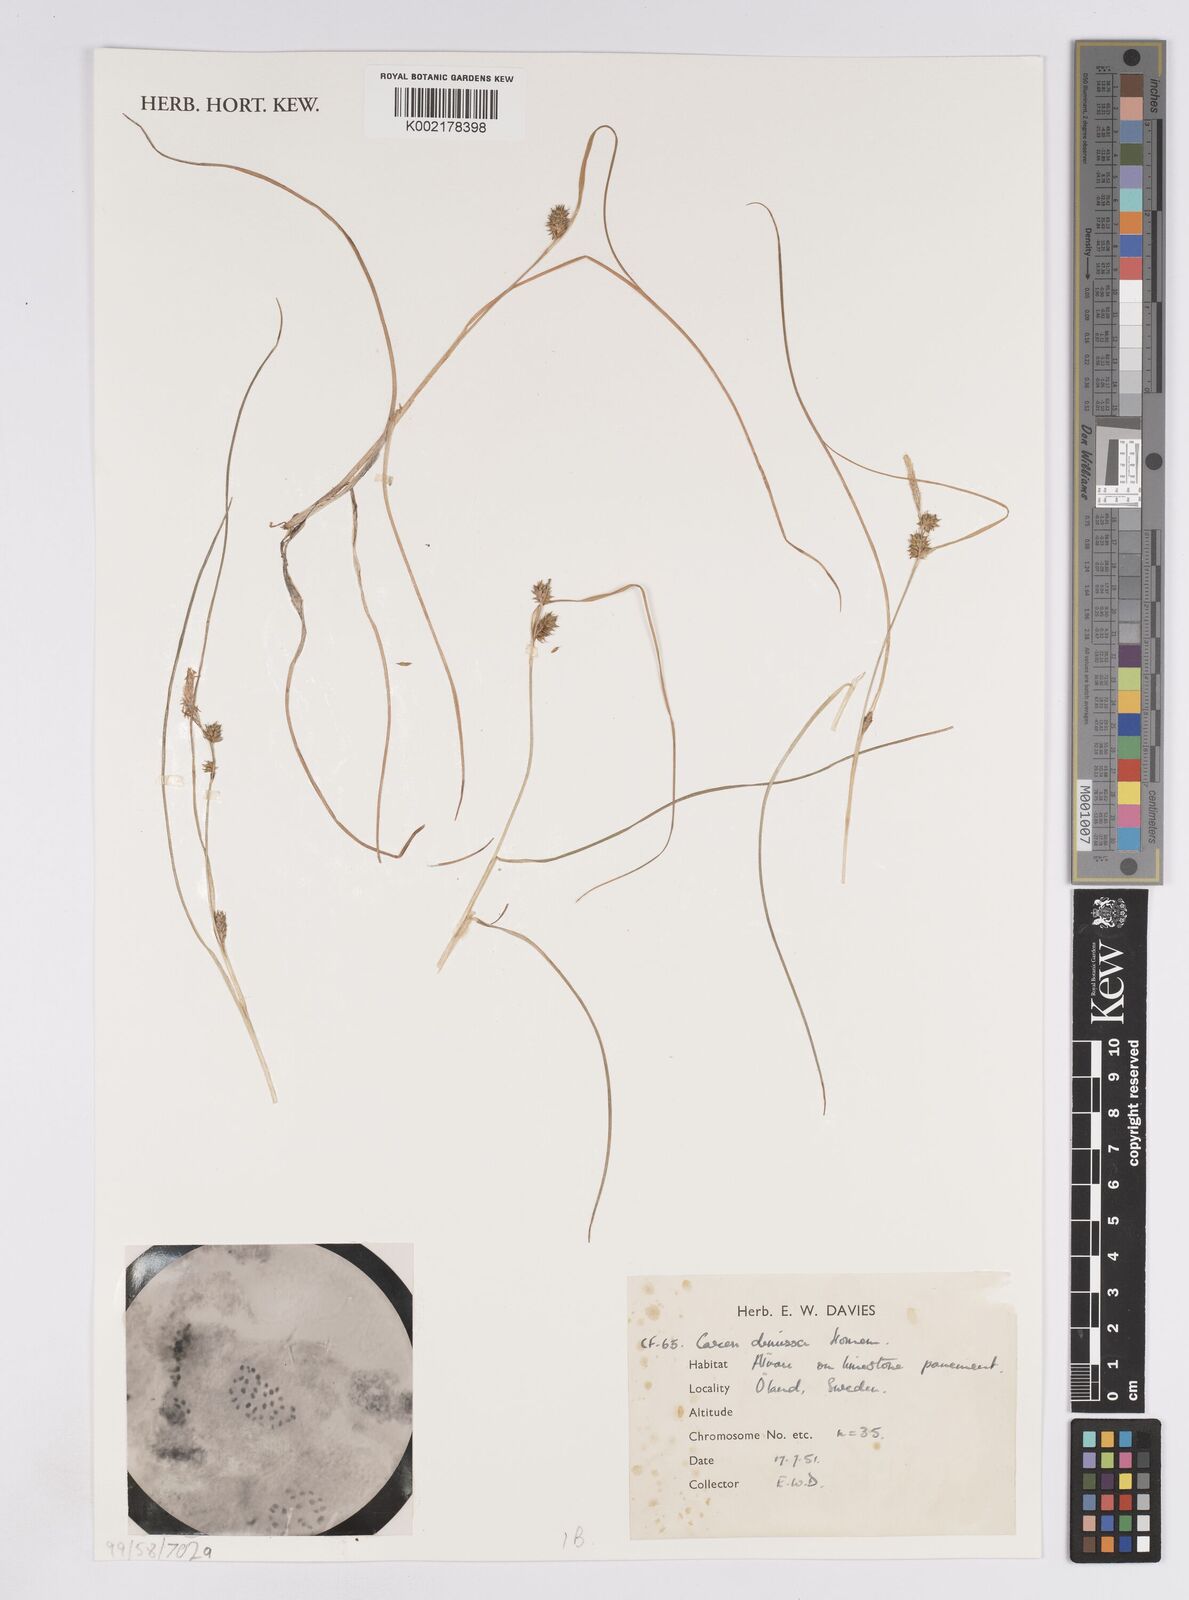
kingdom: Plantae
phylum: Tracheophyta
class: Liliopsida
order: Poales
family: Cyperaceae
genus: Carex
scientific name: Carex demissa
